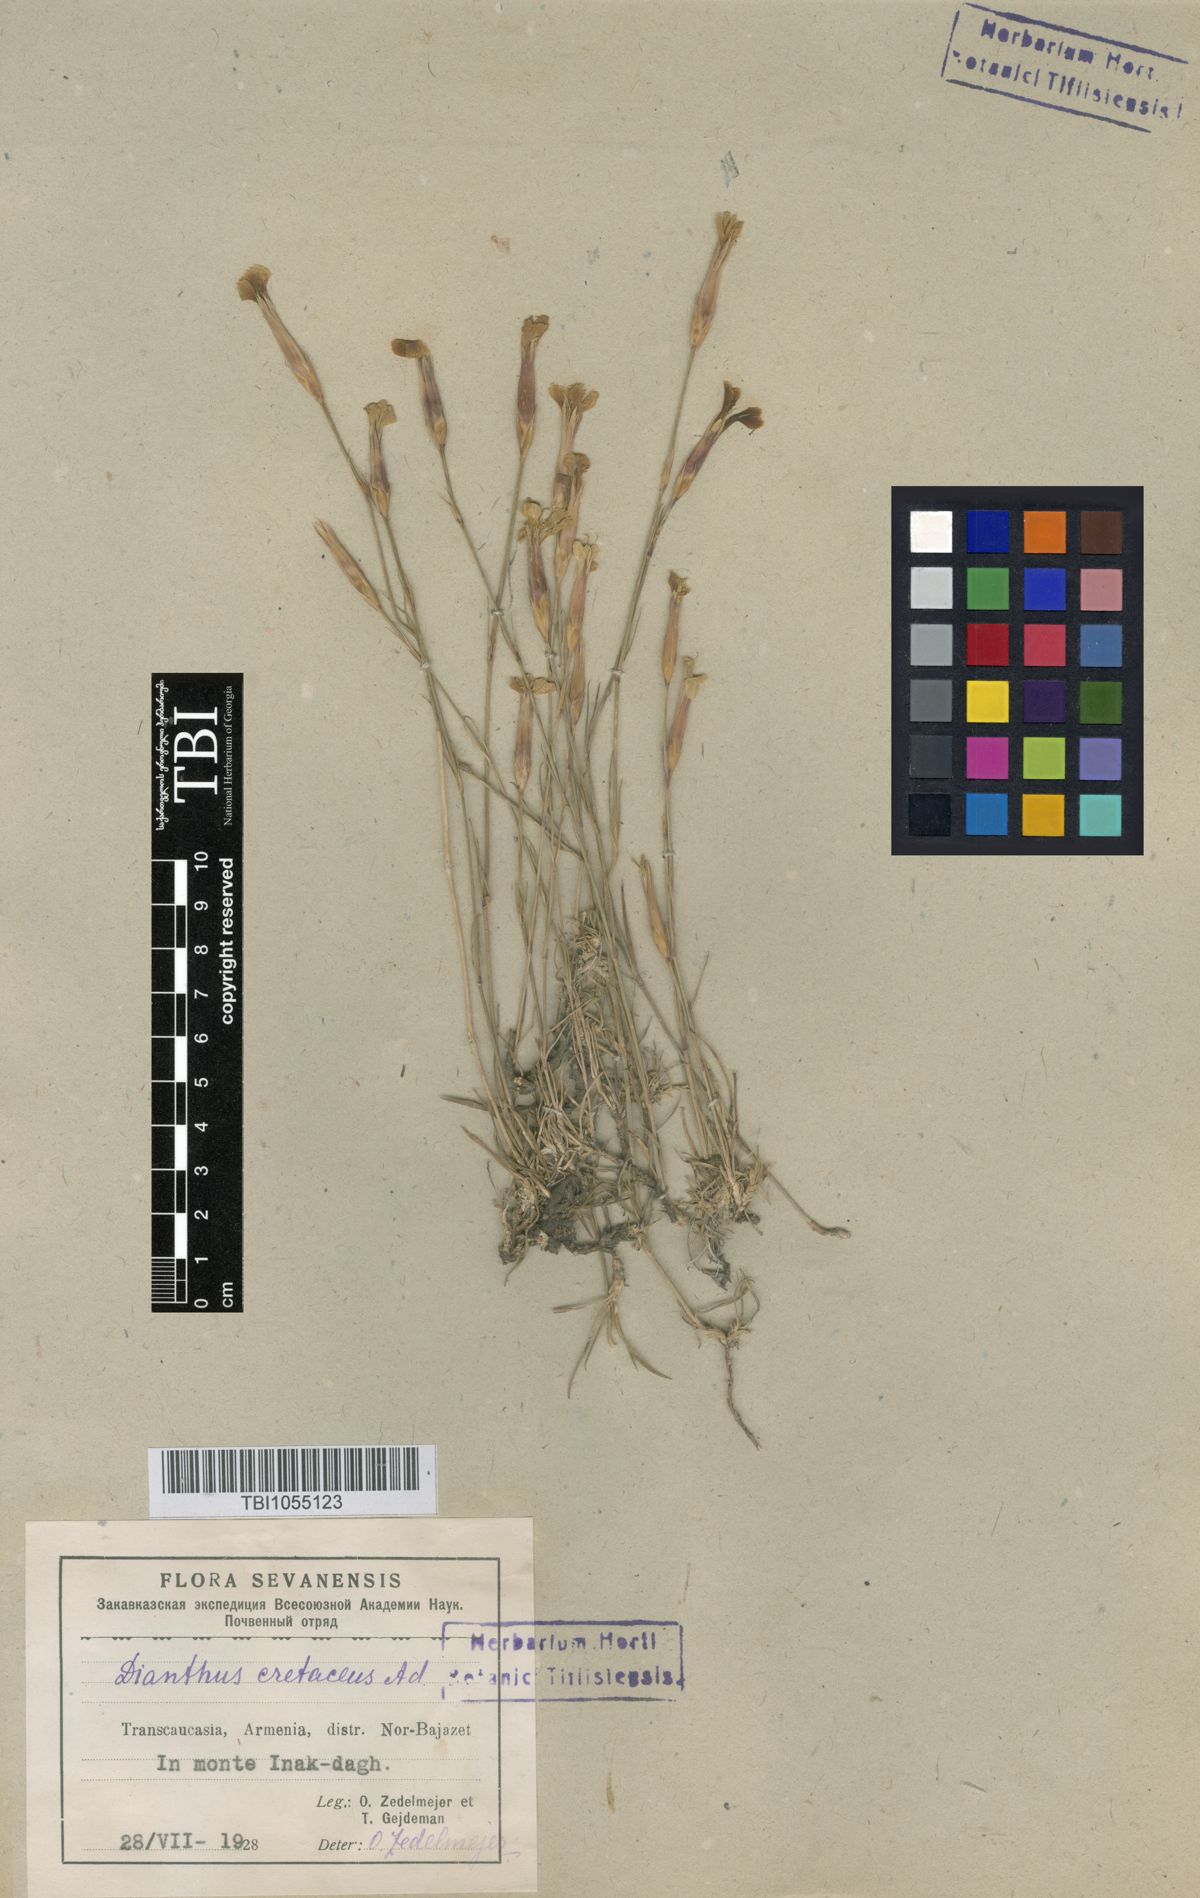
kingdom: Plantae
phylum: Tracheophyta
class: Magnoliopsida
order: Caryophyllales
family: Caryophyllaceae
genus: Dianthus
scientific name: Dianthus cretaceus
